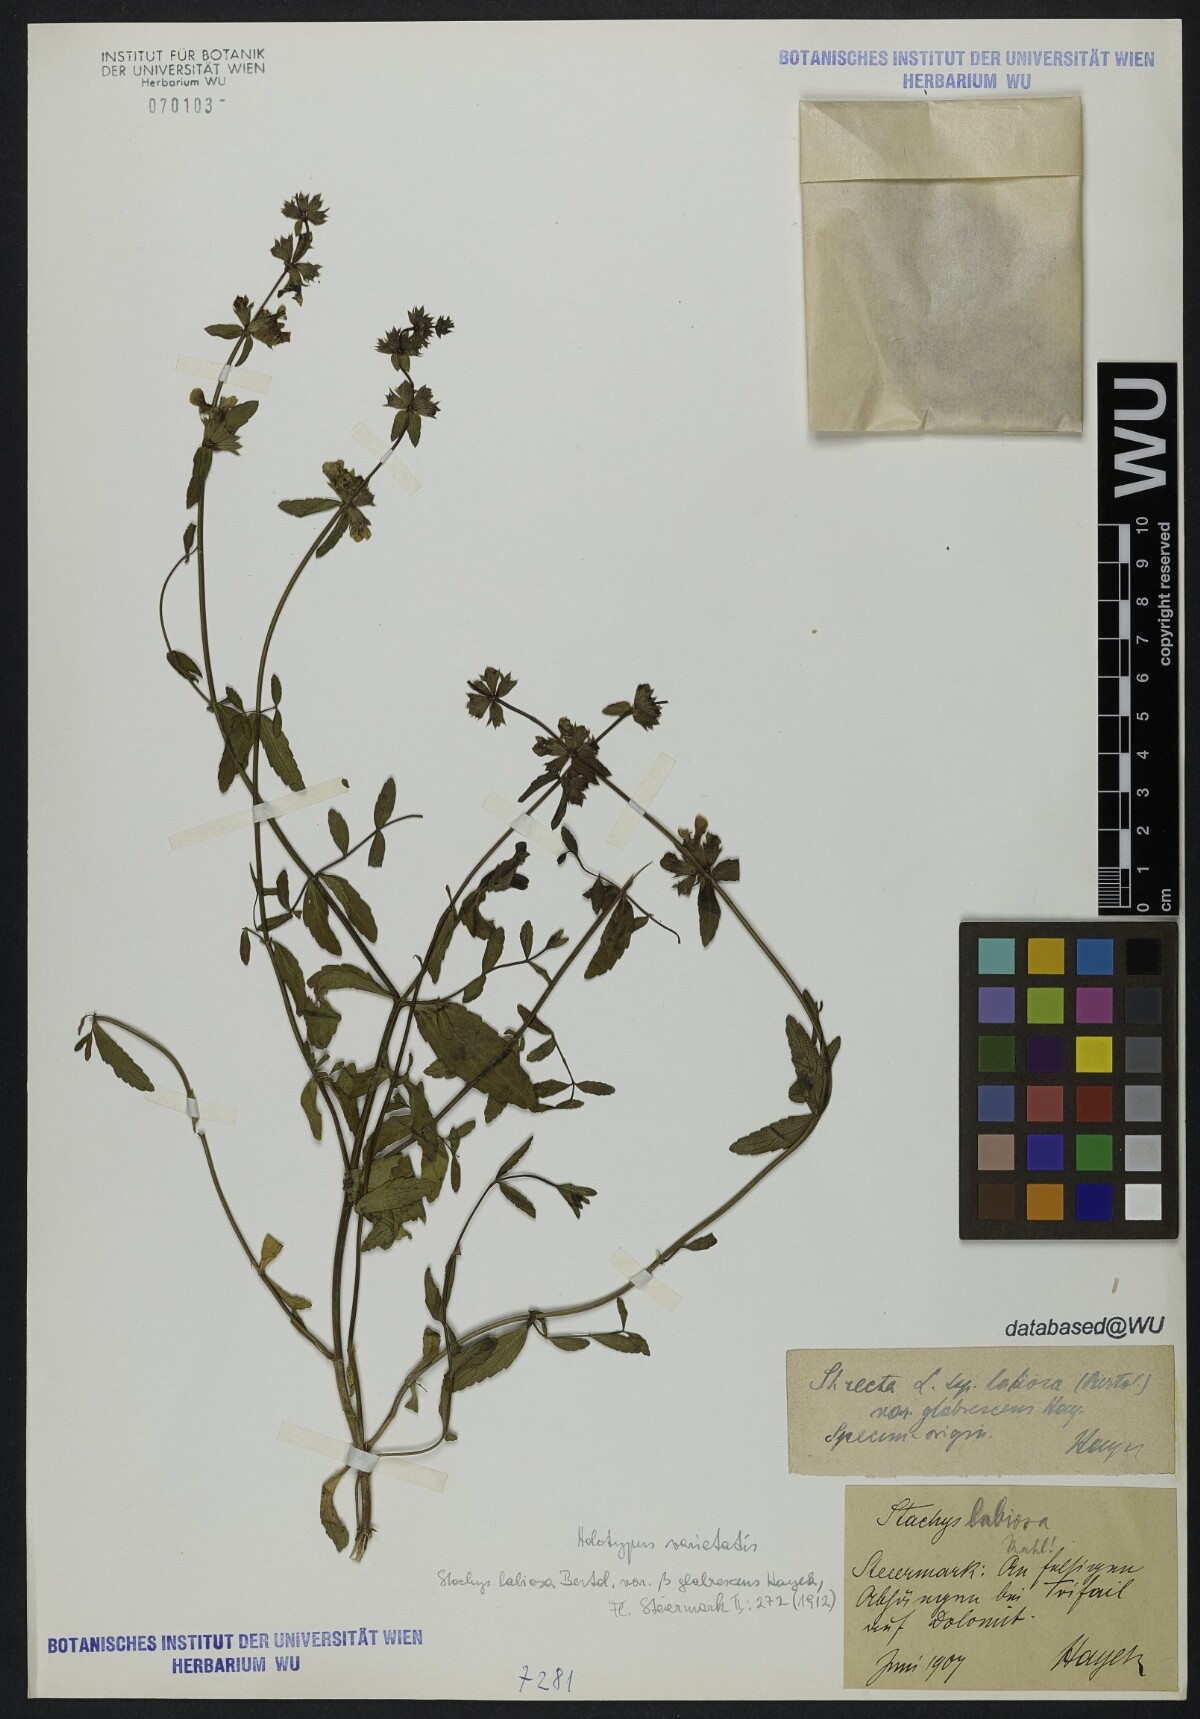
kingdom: Plantae
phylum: Tracheophyta
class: Magnoliopsida
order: Lamiales
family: Lamiaceae
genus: Stachys
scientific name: Stachys recta
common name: Perennial yellow-woundwort
